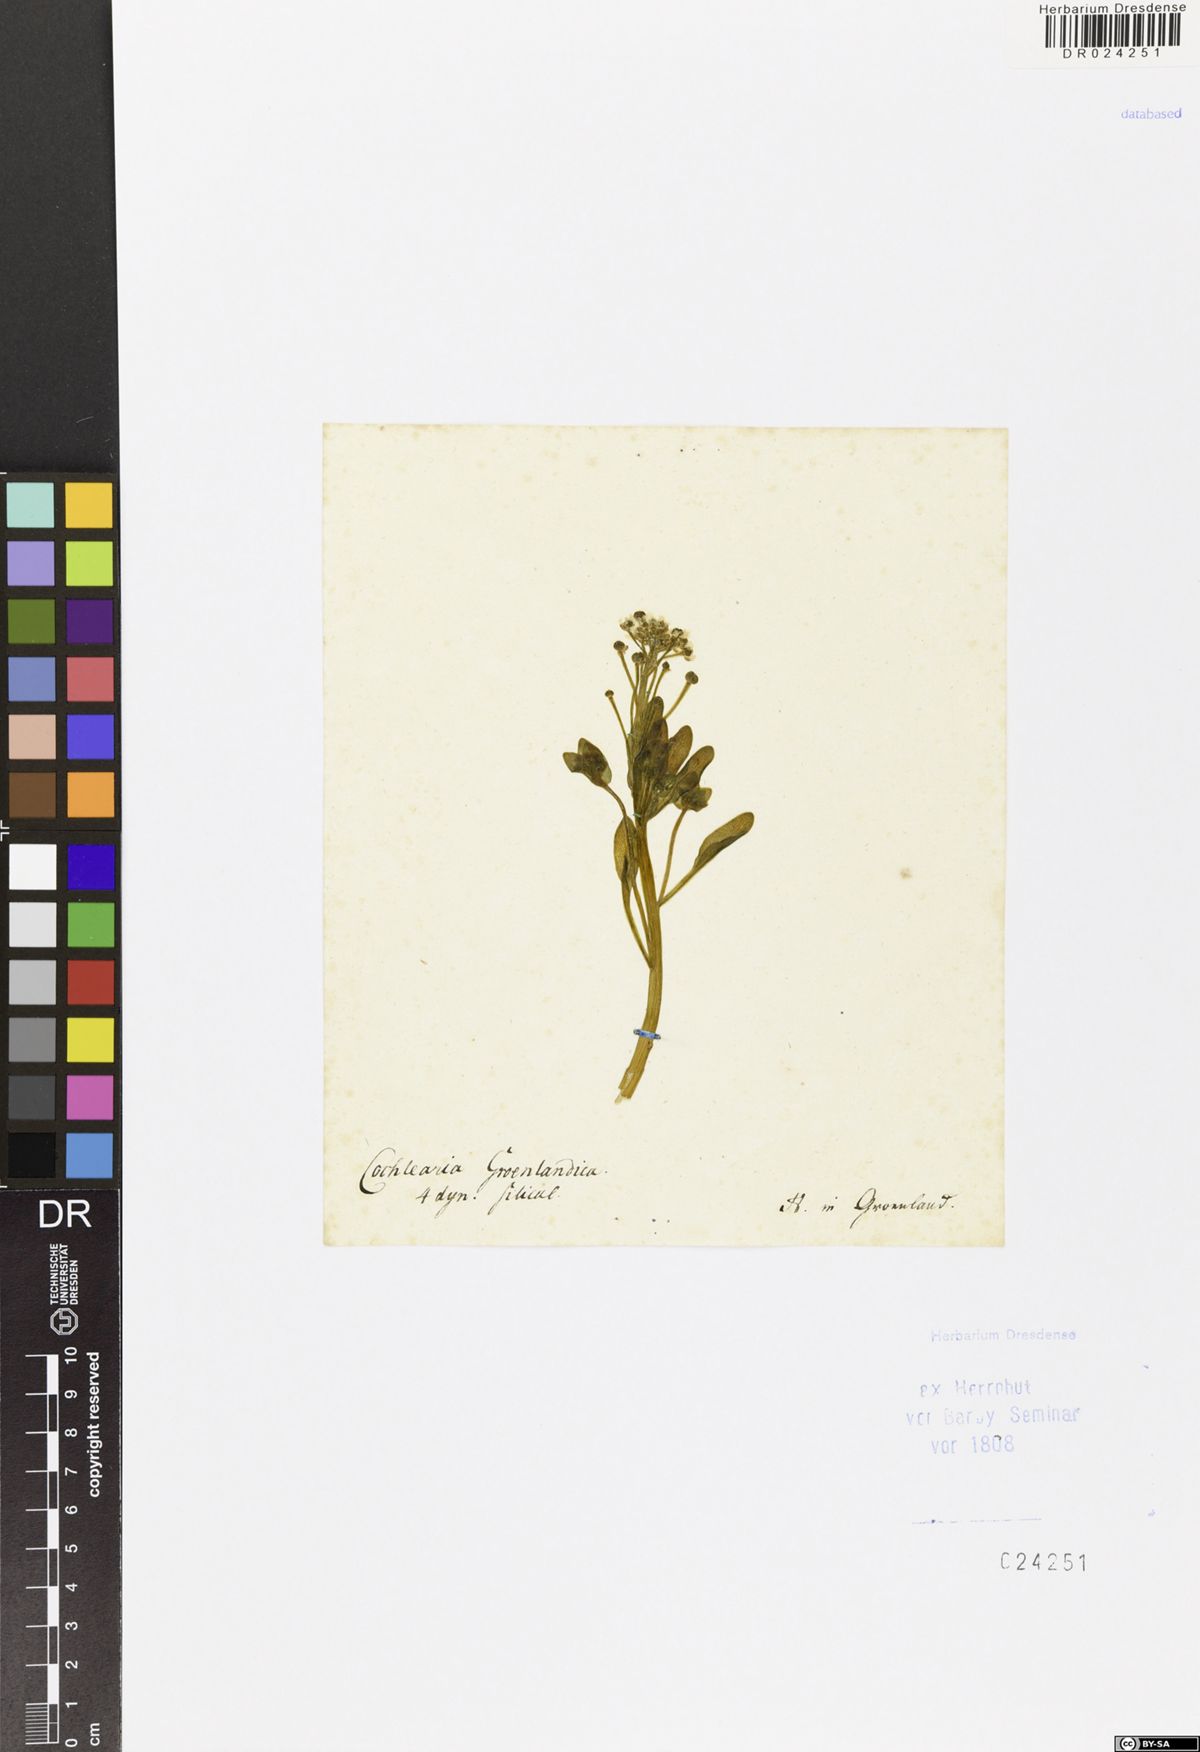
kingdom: Plantae
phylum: Tracheophyta
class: Magnoliopsida
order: Brassicales
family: Brassicaceae
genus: Cochlearia
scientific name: Cochlearia groenlandica
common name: Danish scurvygrass
